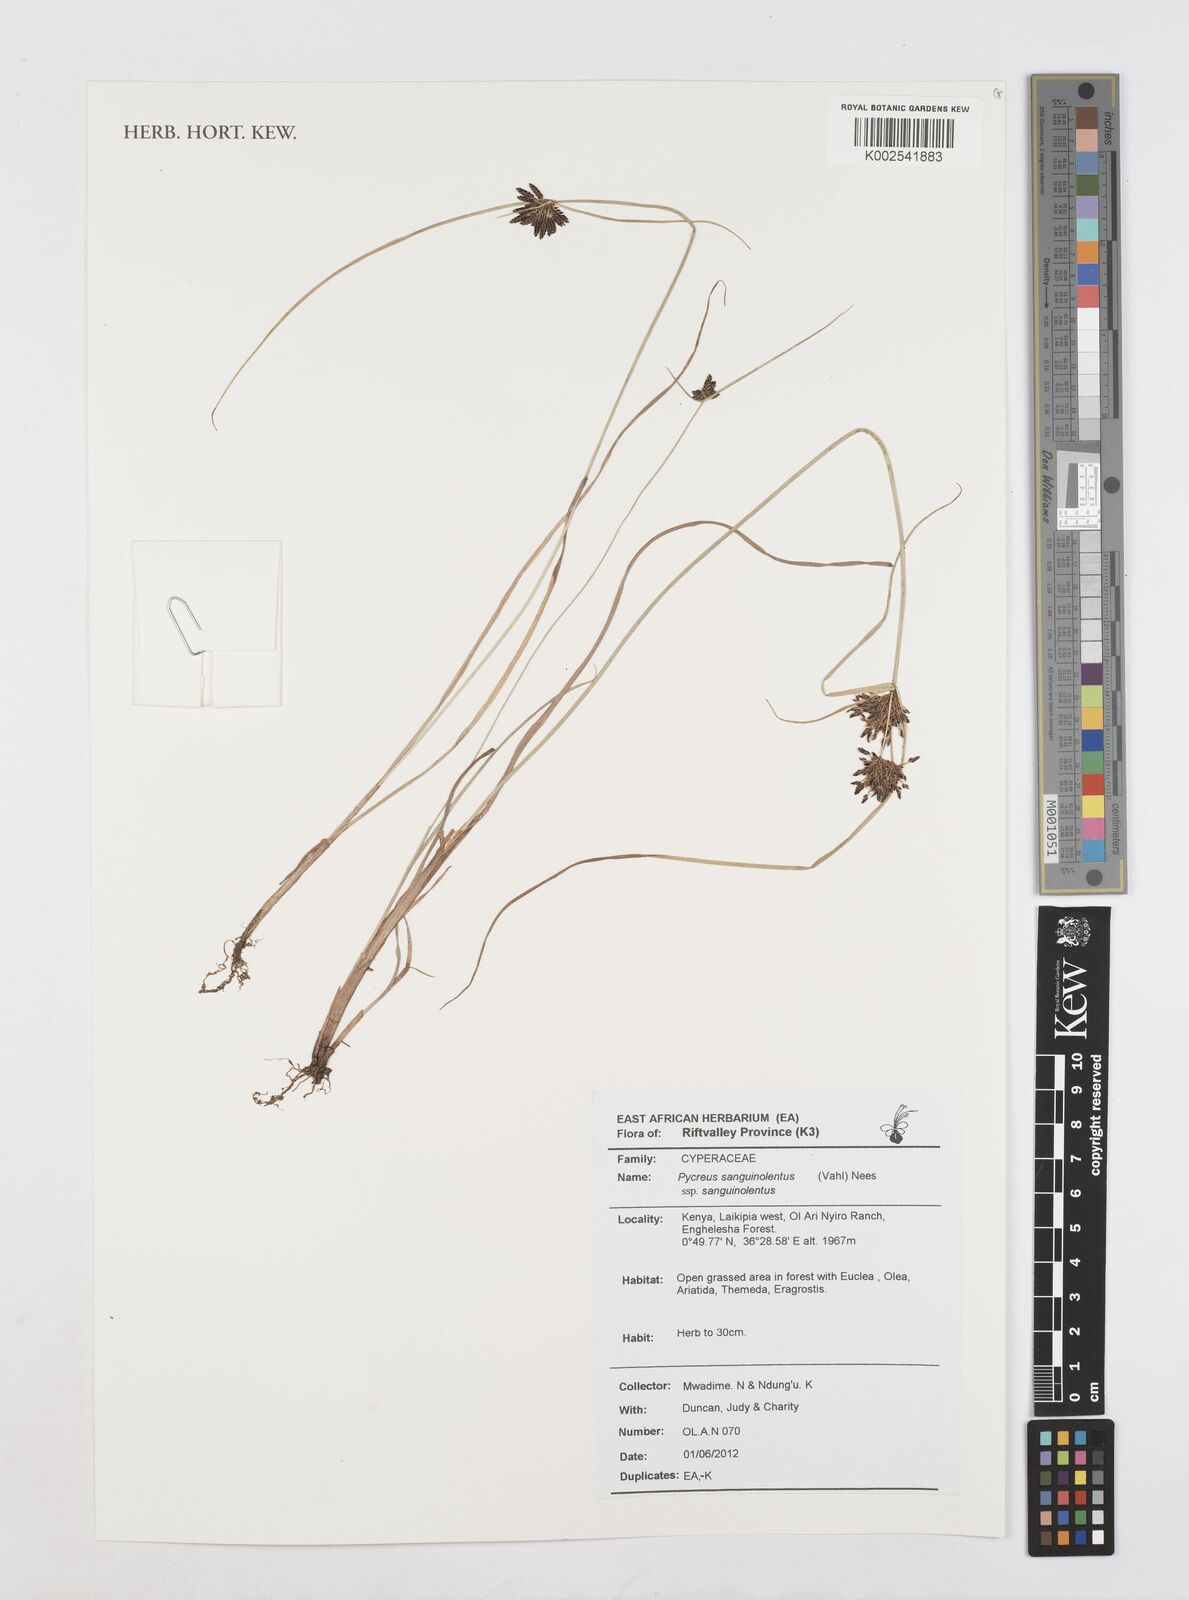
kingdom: Plantae
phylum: Tracheophyta
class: Liliopsida
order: Poales
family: Cyperaceae
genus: Cyperus
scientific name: Cyperus sanguinolentus
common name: Purpleglume flatsedge
